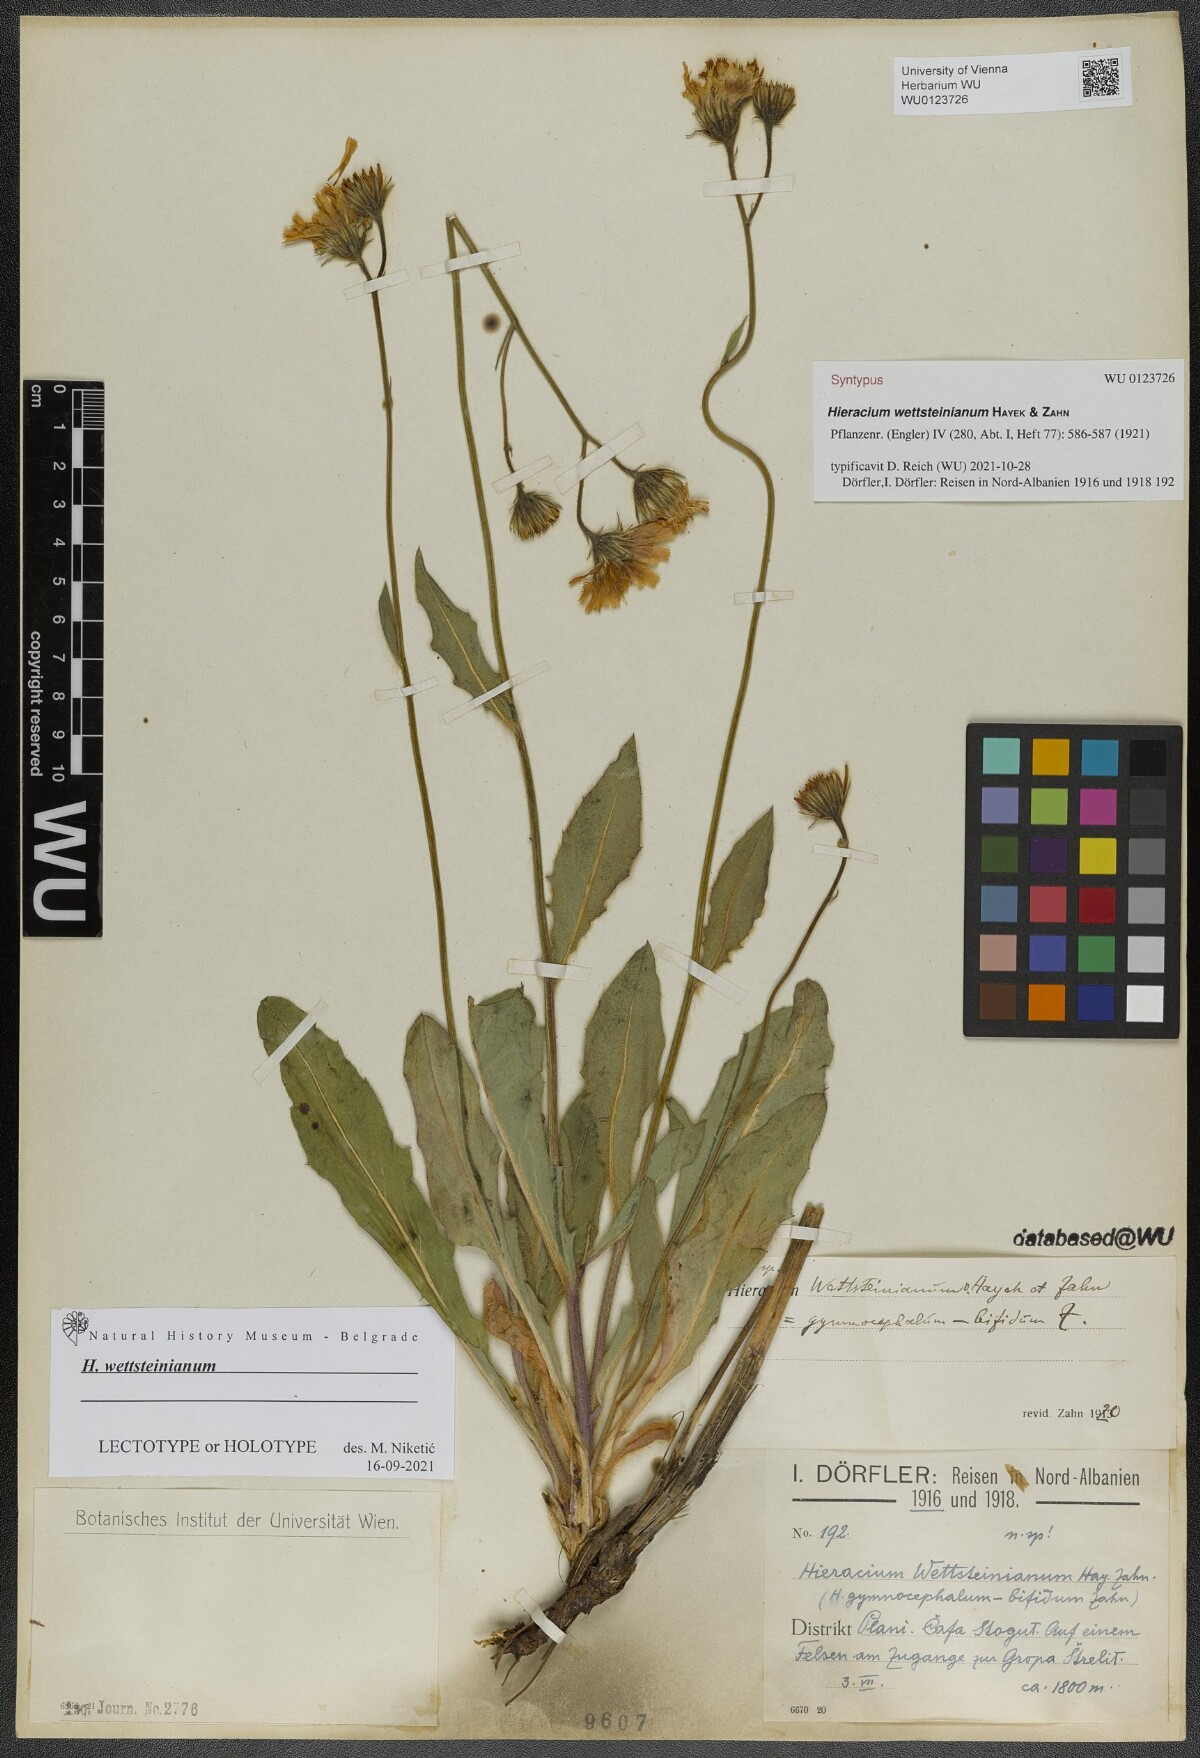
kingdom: Plantae
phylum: Tracheophyta
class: Magnoliopsida
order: Asterales
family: Asteraceae
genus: Hieracium
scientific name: Hieracium wettsteinianum
